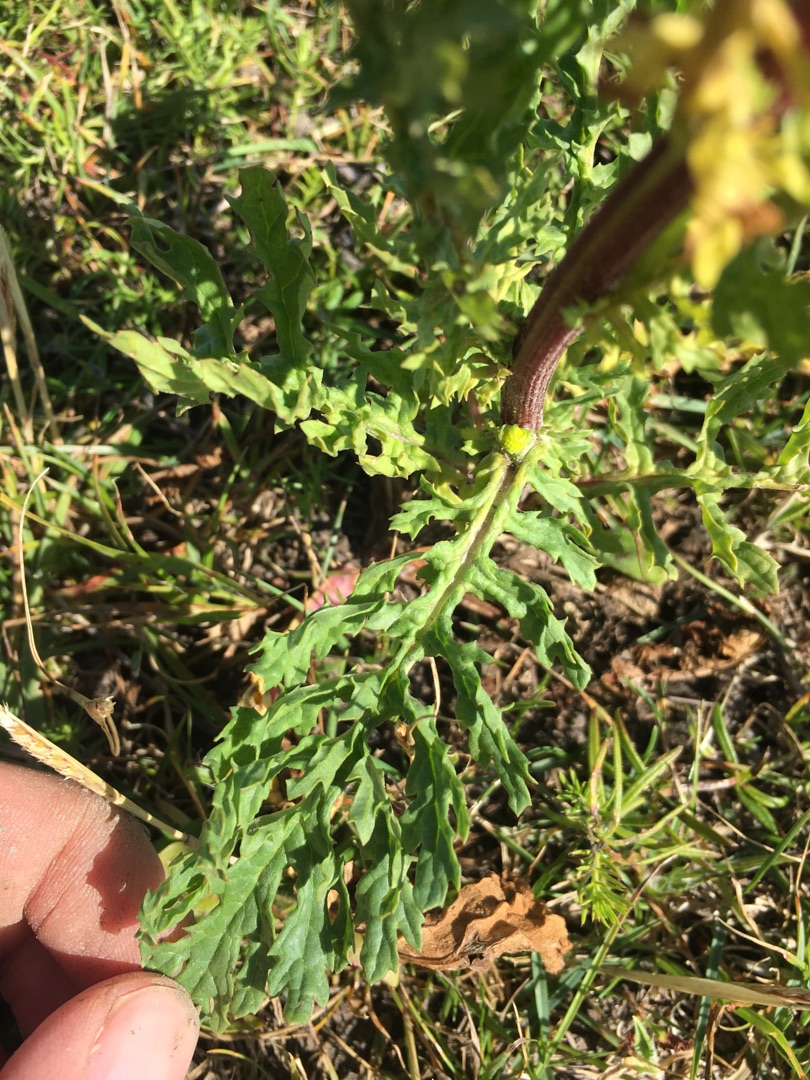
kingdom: Plantae
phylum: Tracheophyta
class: Magnoliopsida
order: Asterales
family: Asteraceae
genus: Jacobaea
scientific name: Jacobaea vulgaris
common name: Eng-brandbæger
